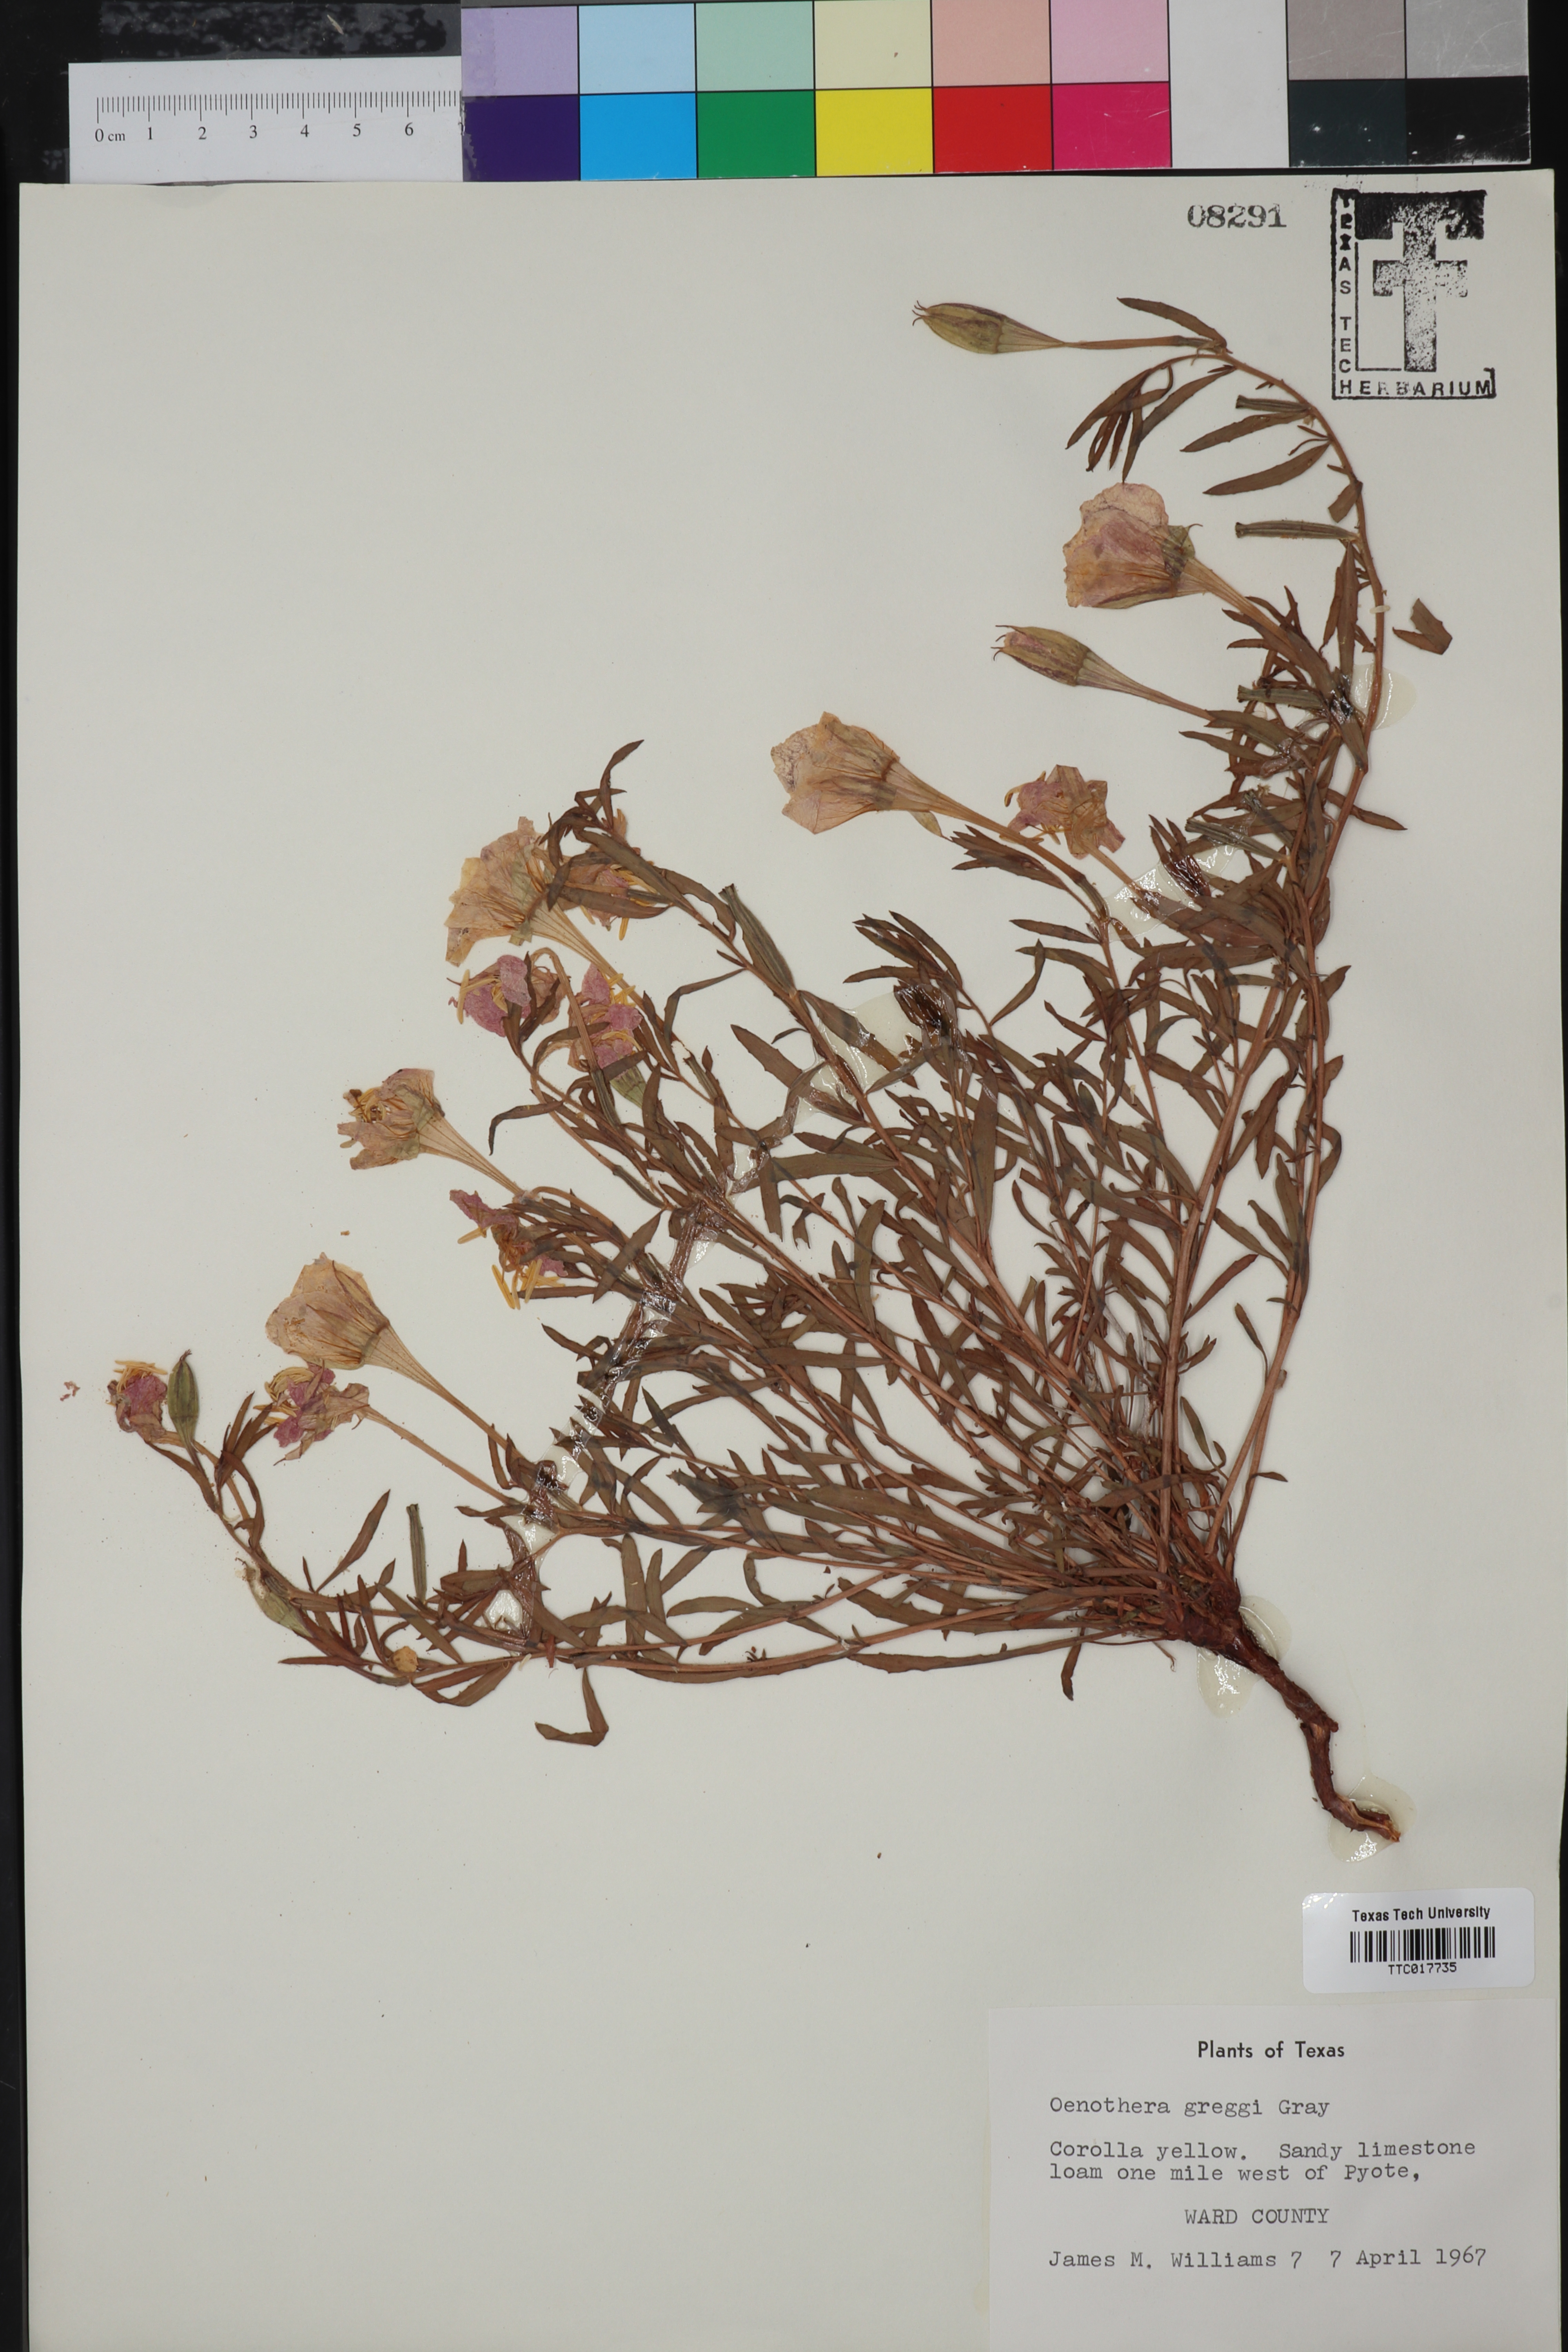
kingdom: Plantae
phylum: Tracheophyta
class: Magnoliopsida
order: Myrtales
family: Onagraceae
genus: Oenothera
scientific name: Oenothera hartwegii
